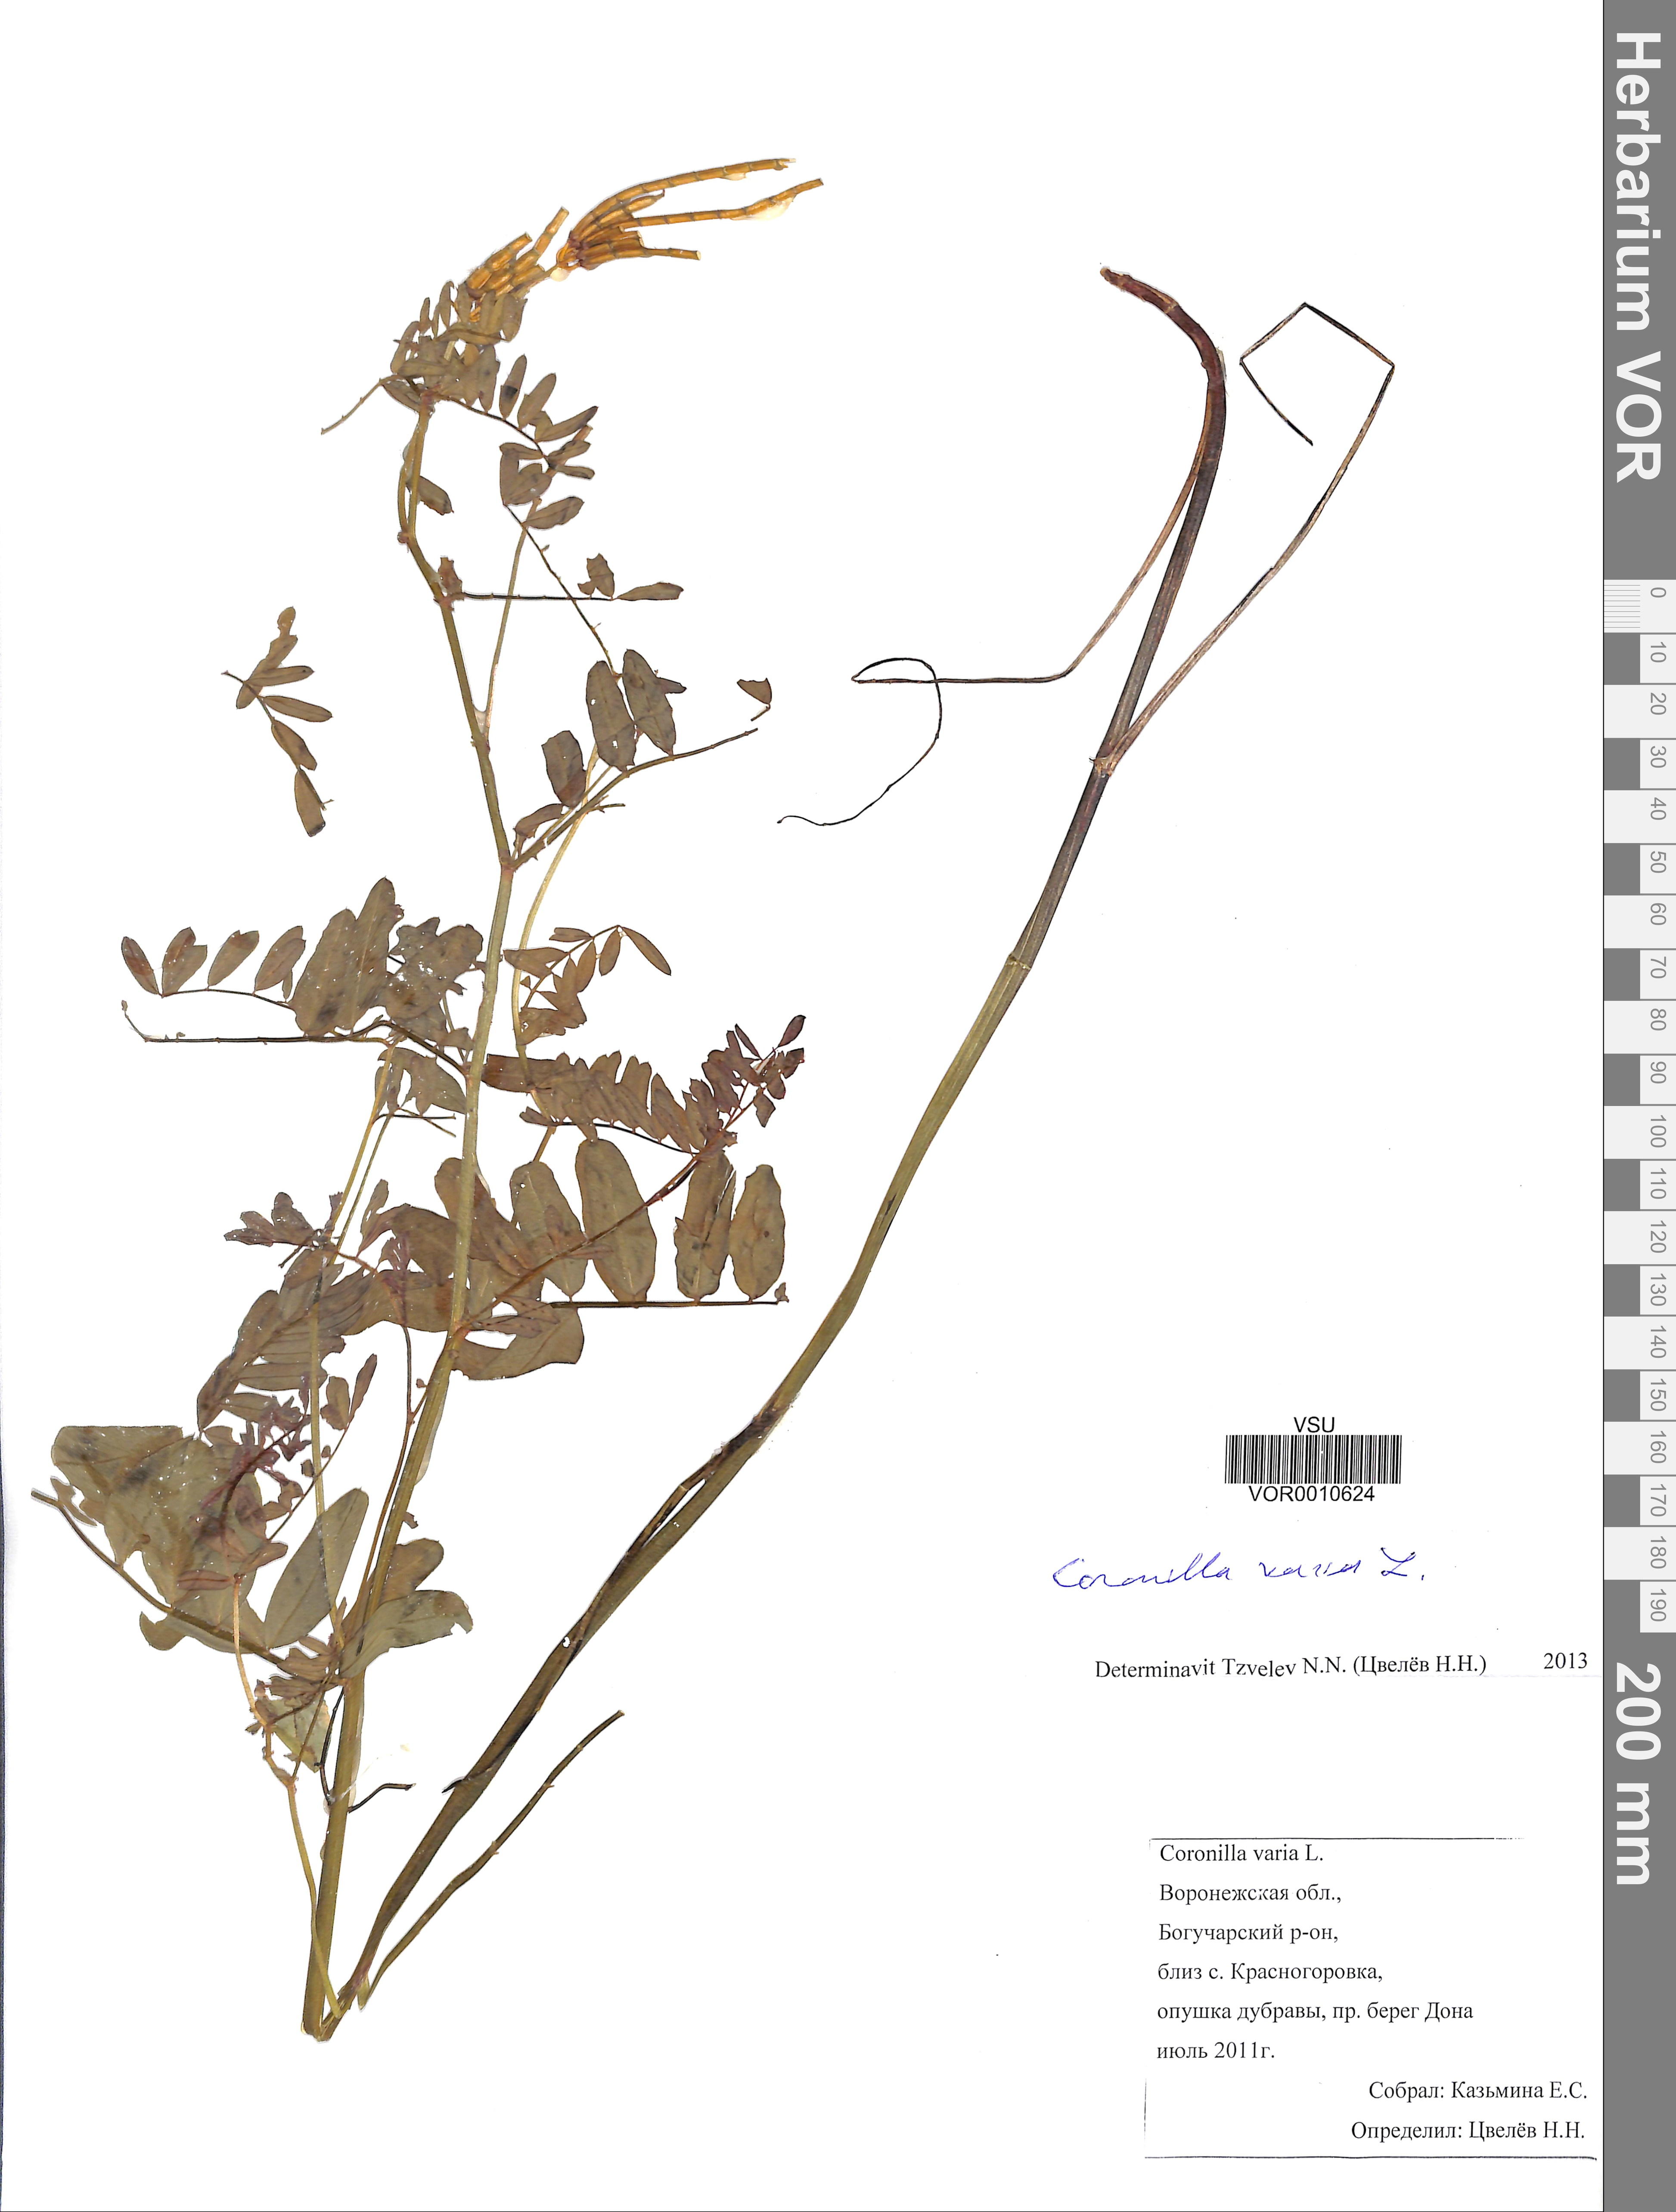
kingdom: Plantae
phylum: Tracheophyta
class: Magnoliopsida
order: Fabales
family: Fabaceae
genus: Coronilla
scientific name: Coronilla varia
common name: Crownvetch
